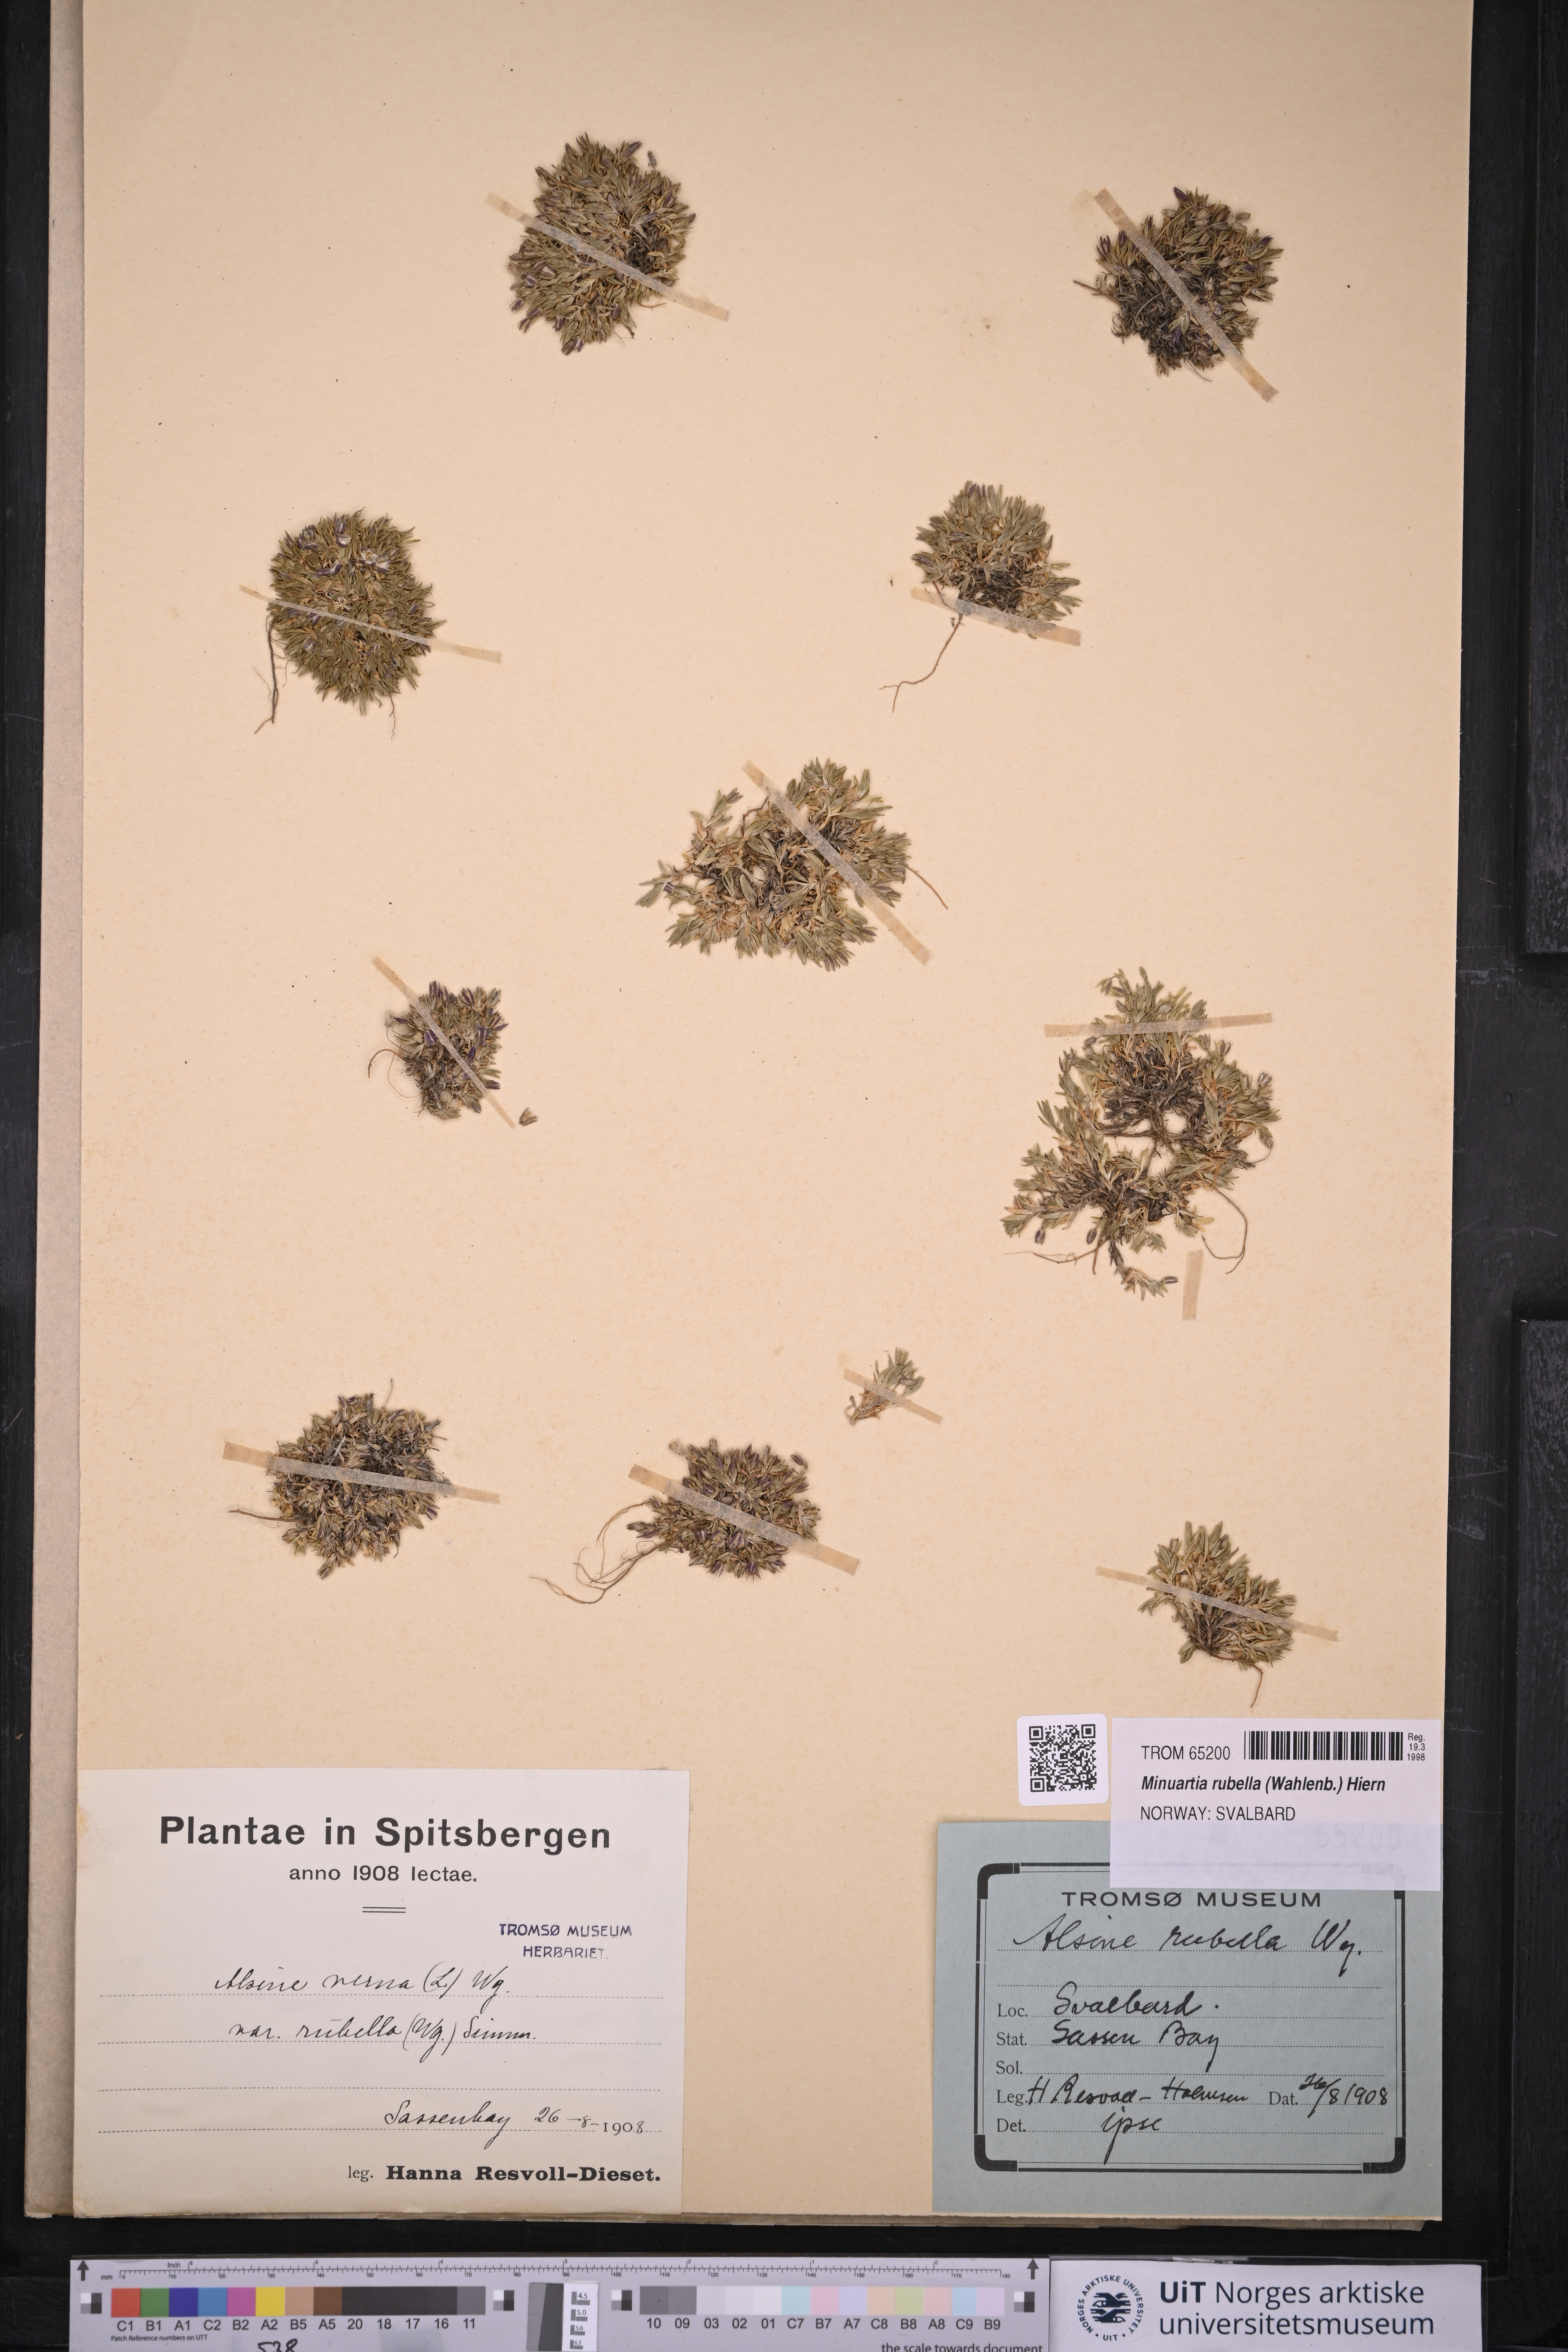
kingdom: Plantae
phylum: Tracheophyta
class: Magnoliopsida
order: Caryophyllales
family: Caryophyllaceae
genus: Sabulina
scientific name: Sabulina rubella
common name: Beautiful sandwort
